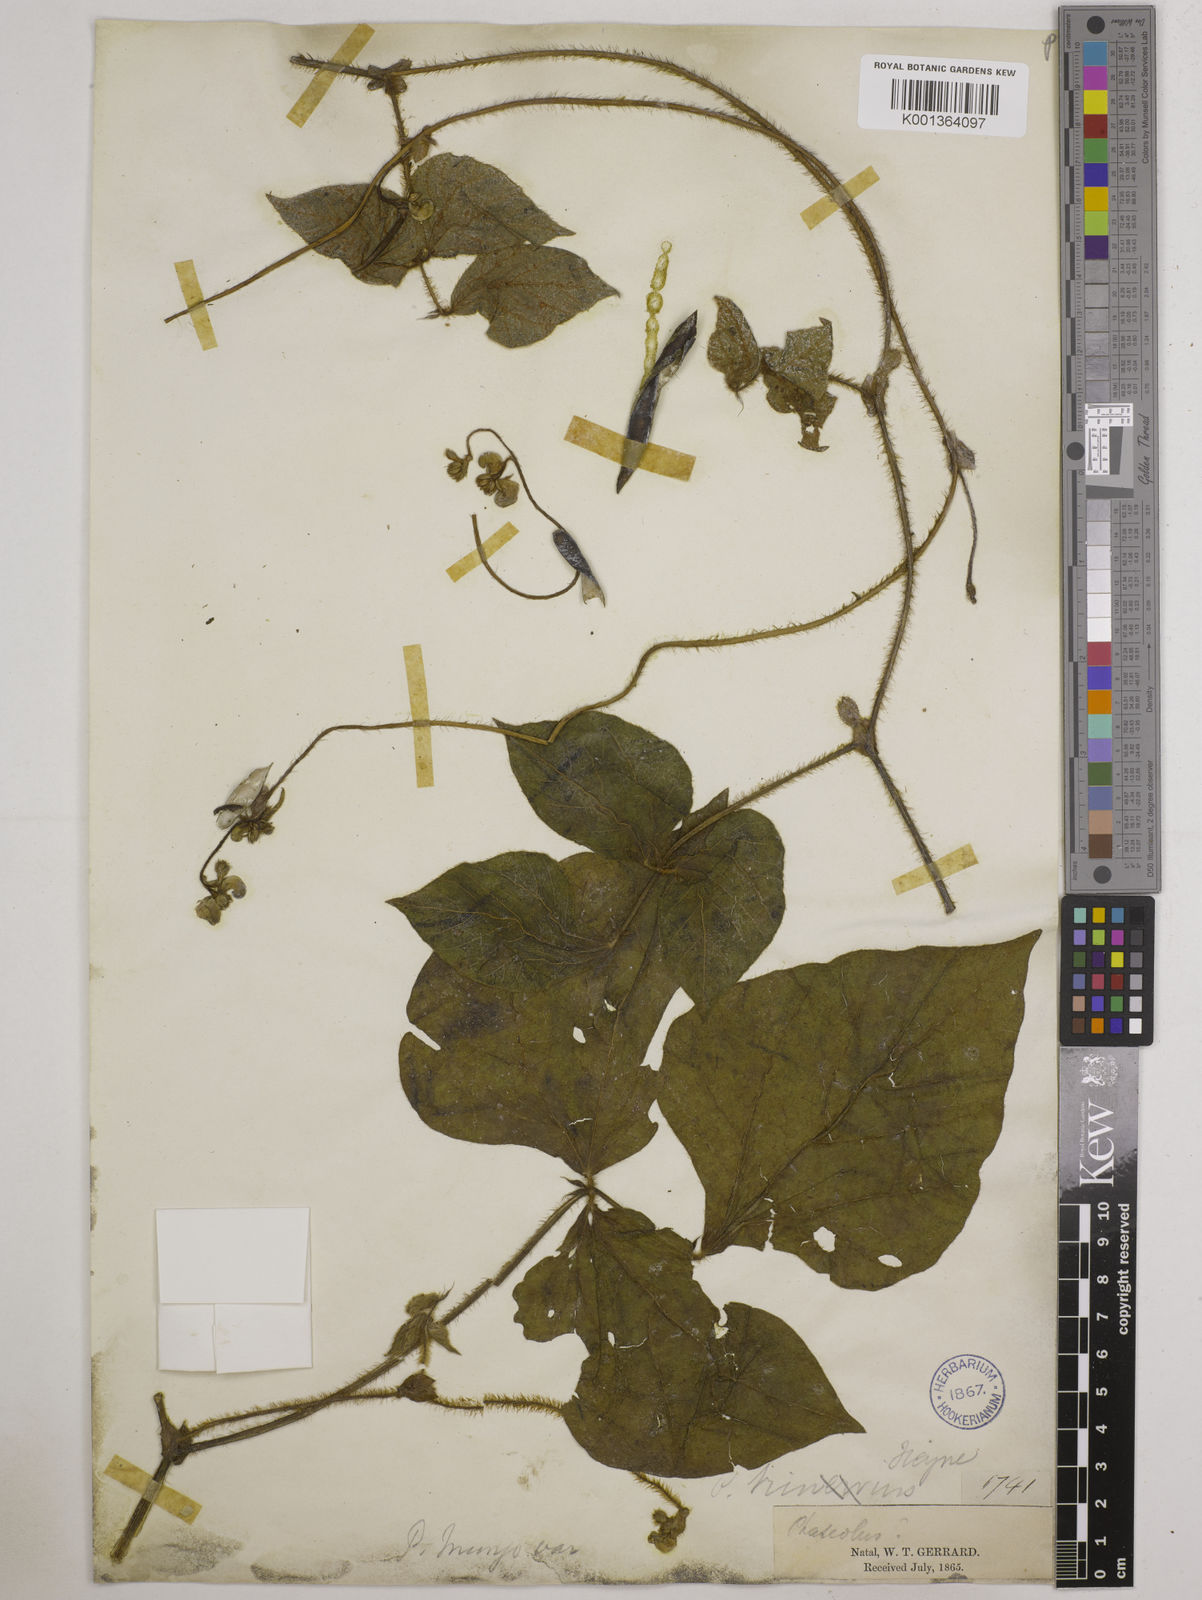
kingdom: Plantae
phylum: Tracheophyta
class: Magnoliopsida
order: Fabales
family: Fabaceae
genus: Vigna
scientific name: Vigna radiata
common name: Mung-bean
